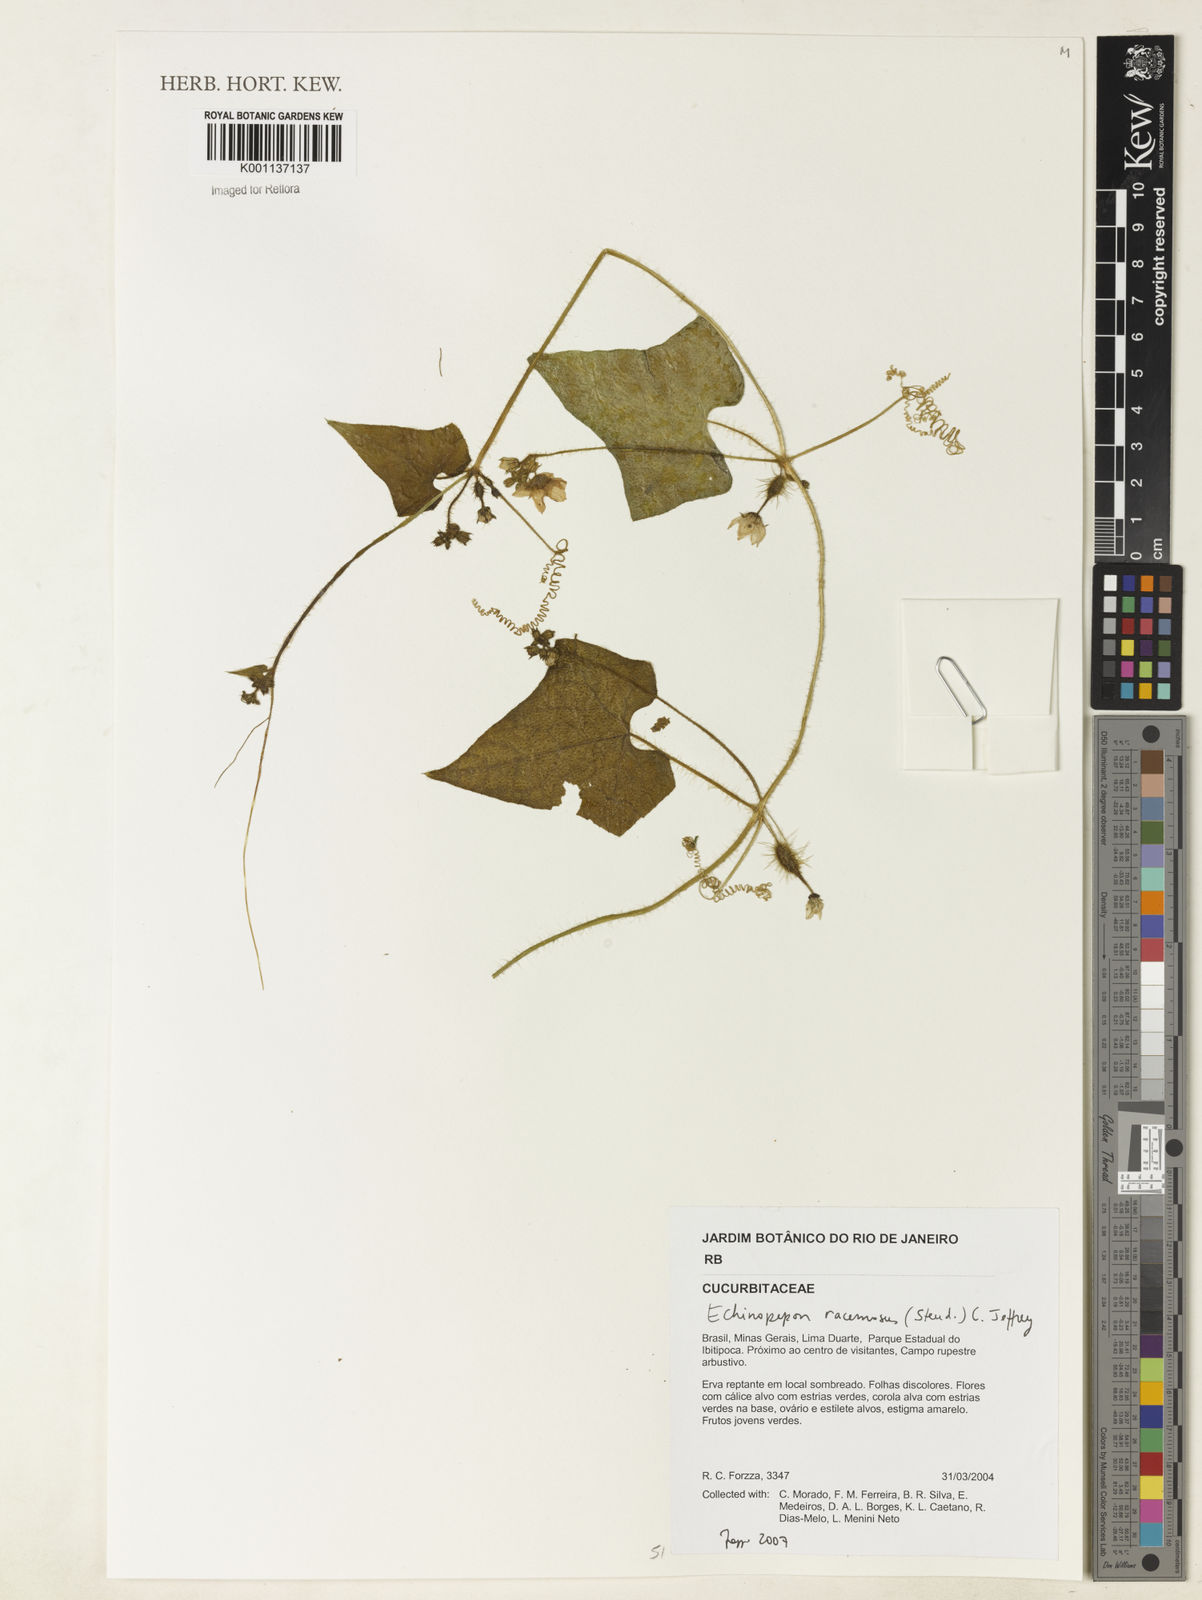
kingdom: Plantae
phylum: Tracheophyta
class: Magnoliopsida
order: Cucurbitales
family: Cucurbitaceae
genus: Echinopepon
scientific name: Echinopepon racemosus
